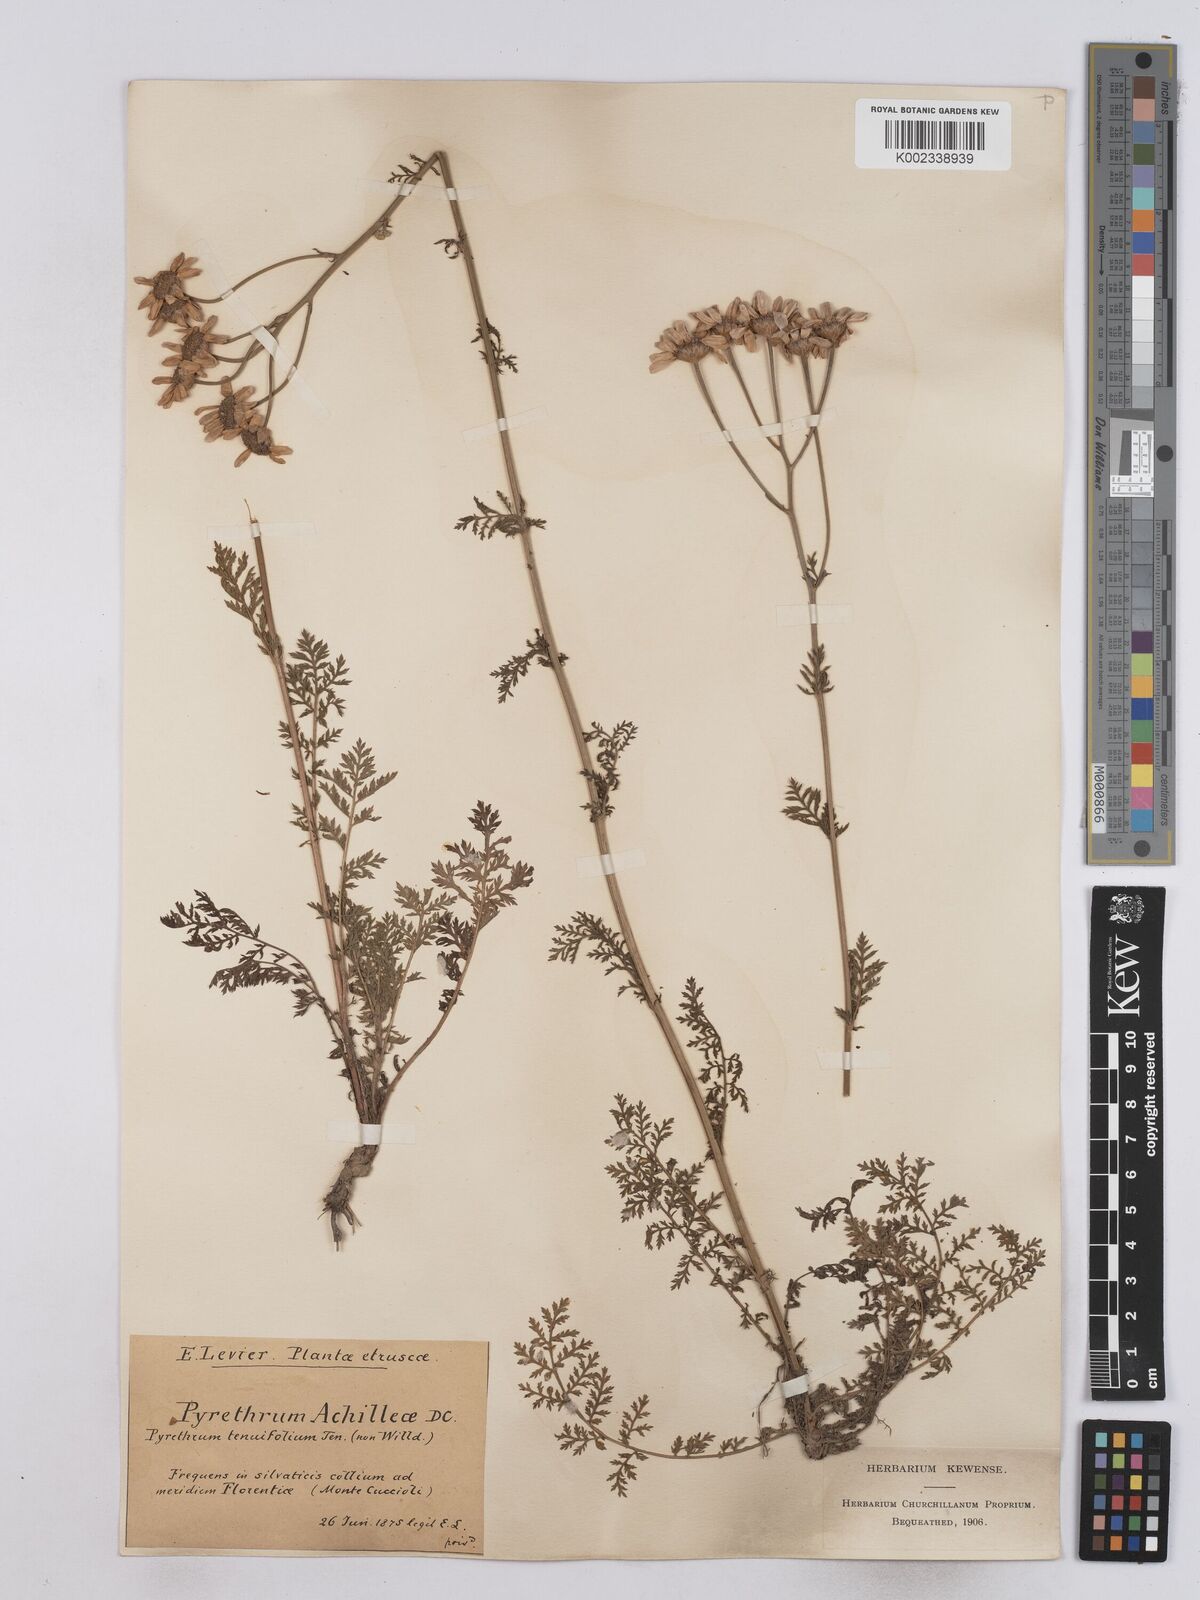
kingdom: Plantae
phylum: Tracheophyta
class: Magnoliopsida
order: Asterales
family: Asteraceae
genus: Tanacetum
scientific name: Tanacetum achilleae
